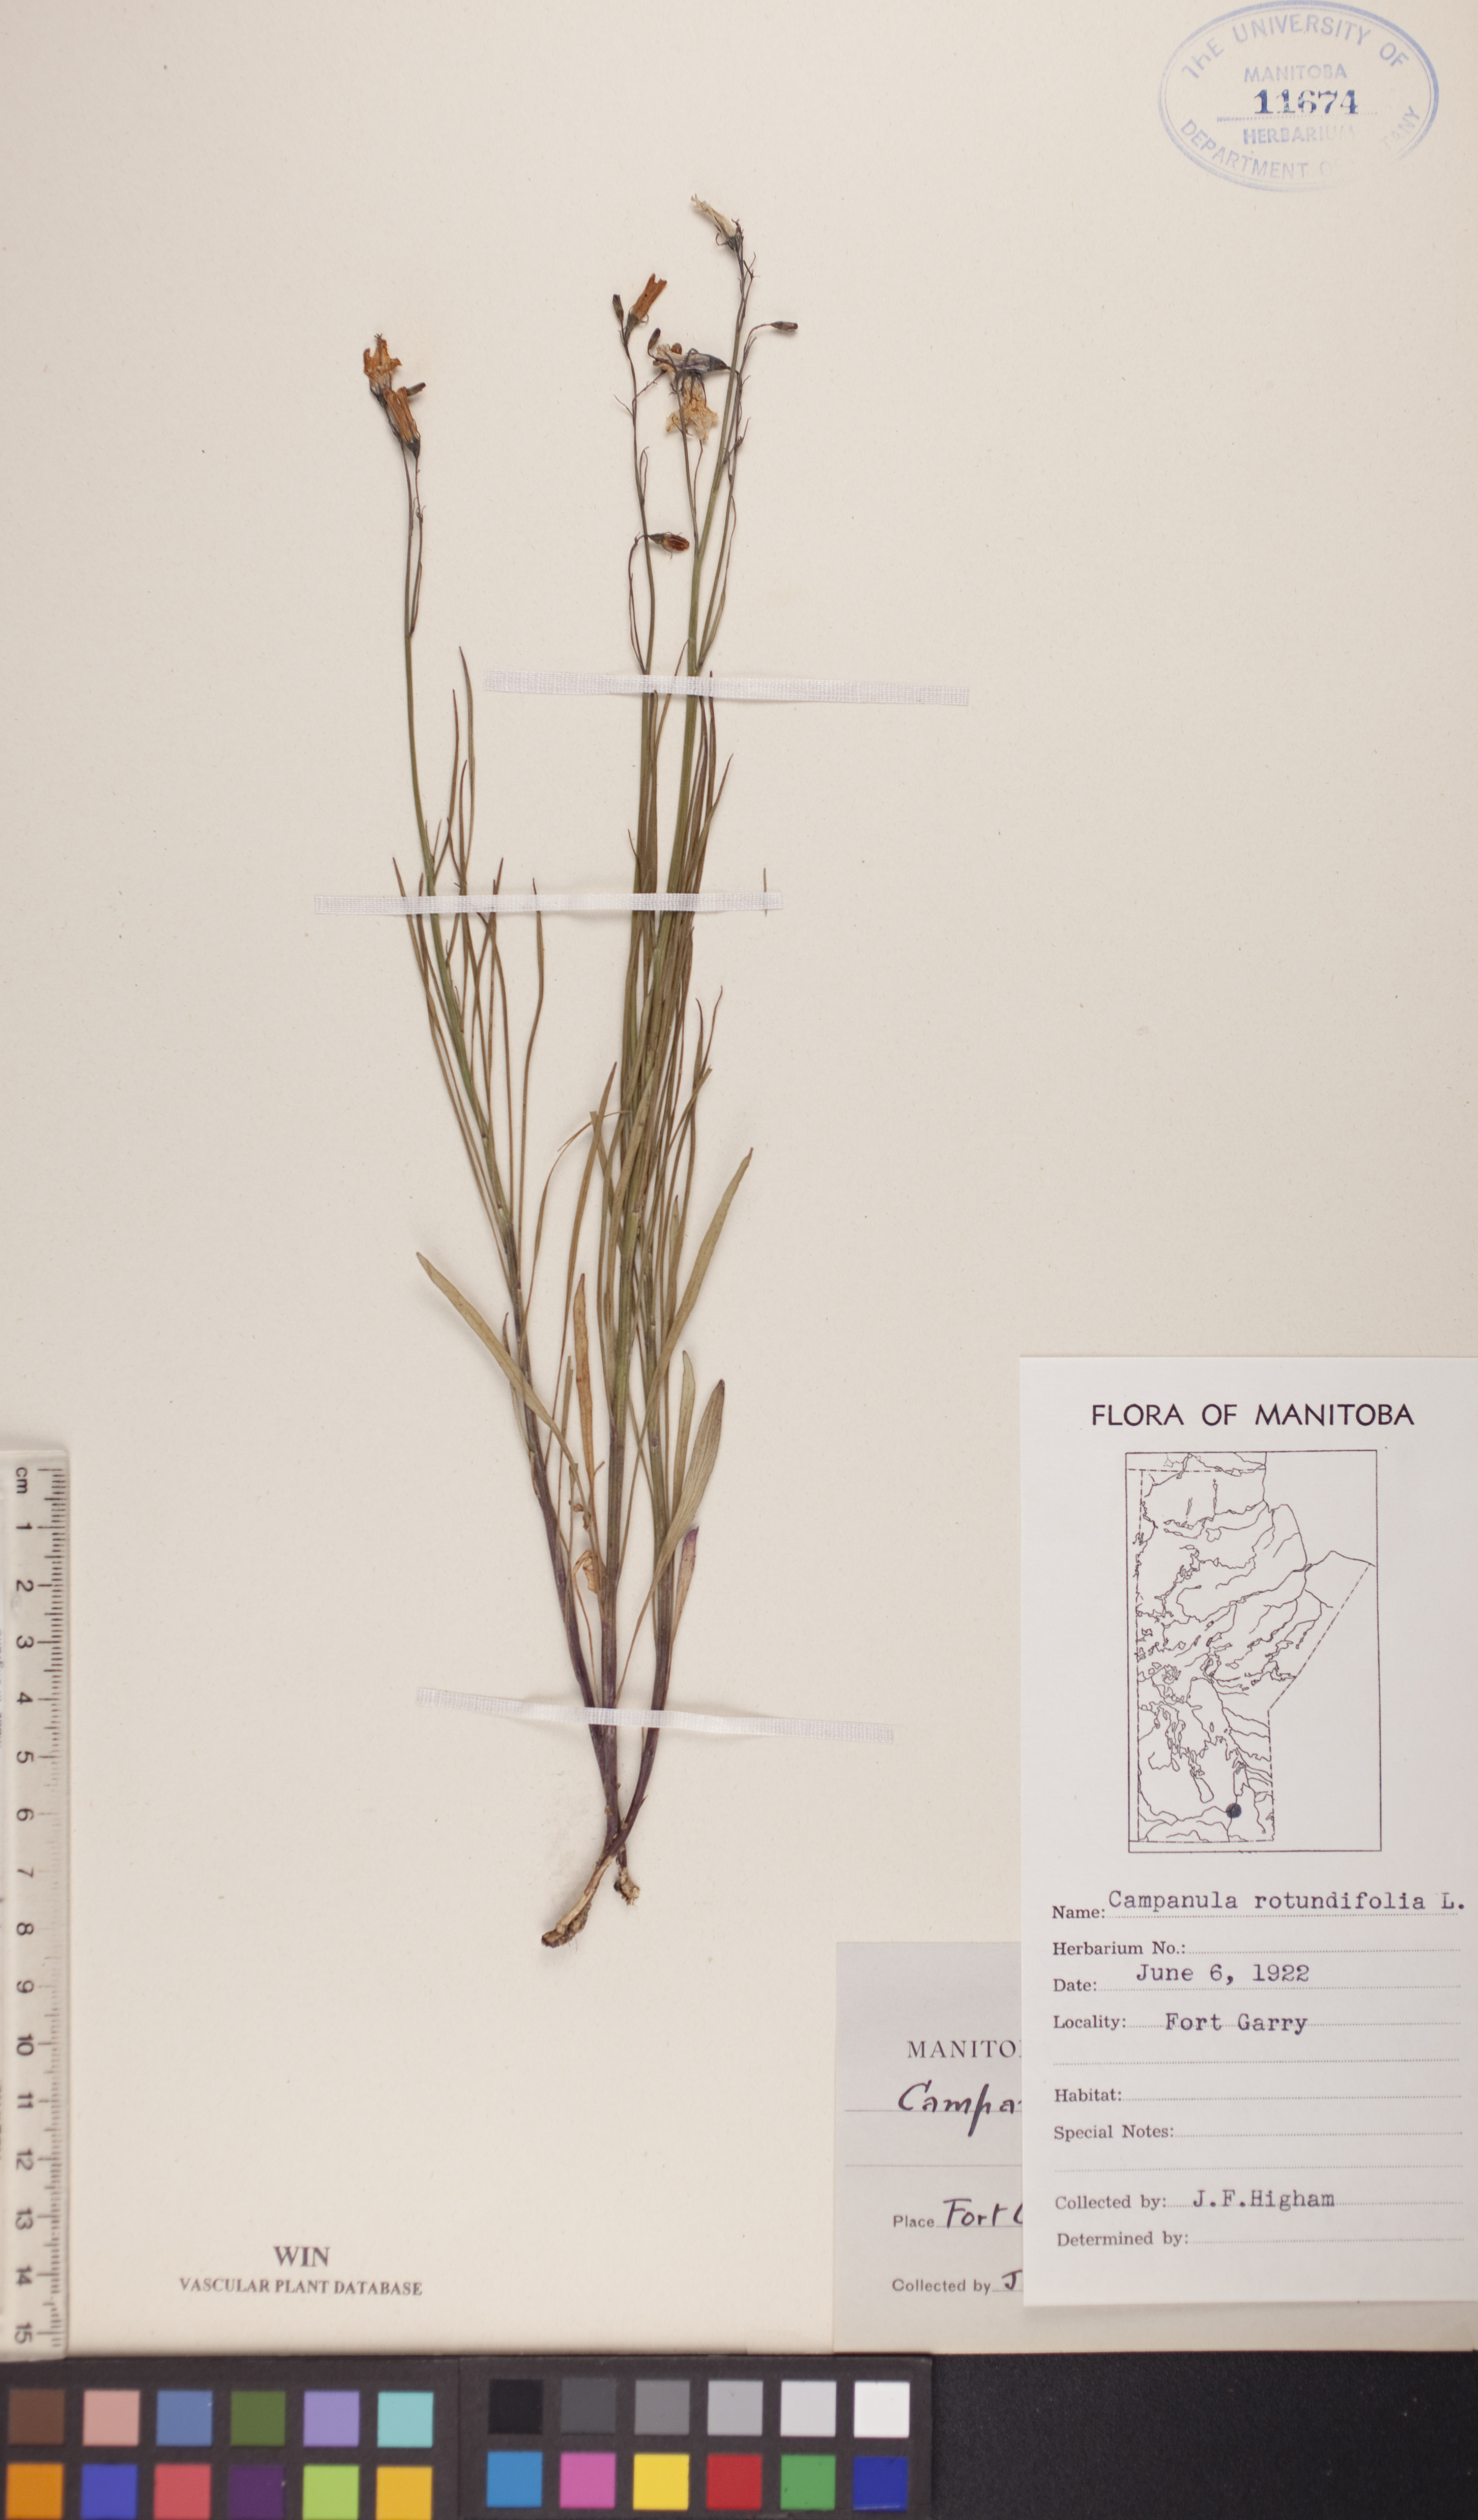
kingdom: Plantae
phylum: Tracheophyta
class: Magnoliopsida
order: Asterales
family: Campanulaceae
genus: Campanula
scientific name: Campanula rotundifolia
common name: Harebell
